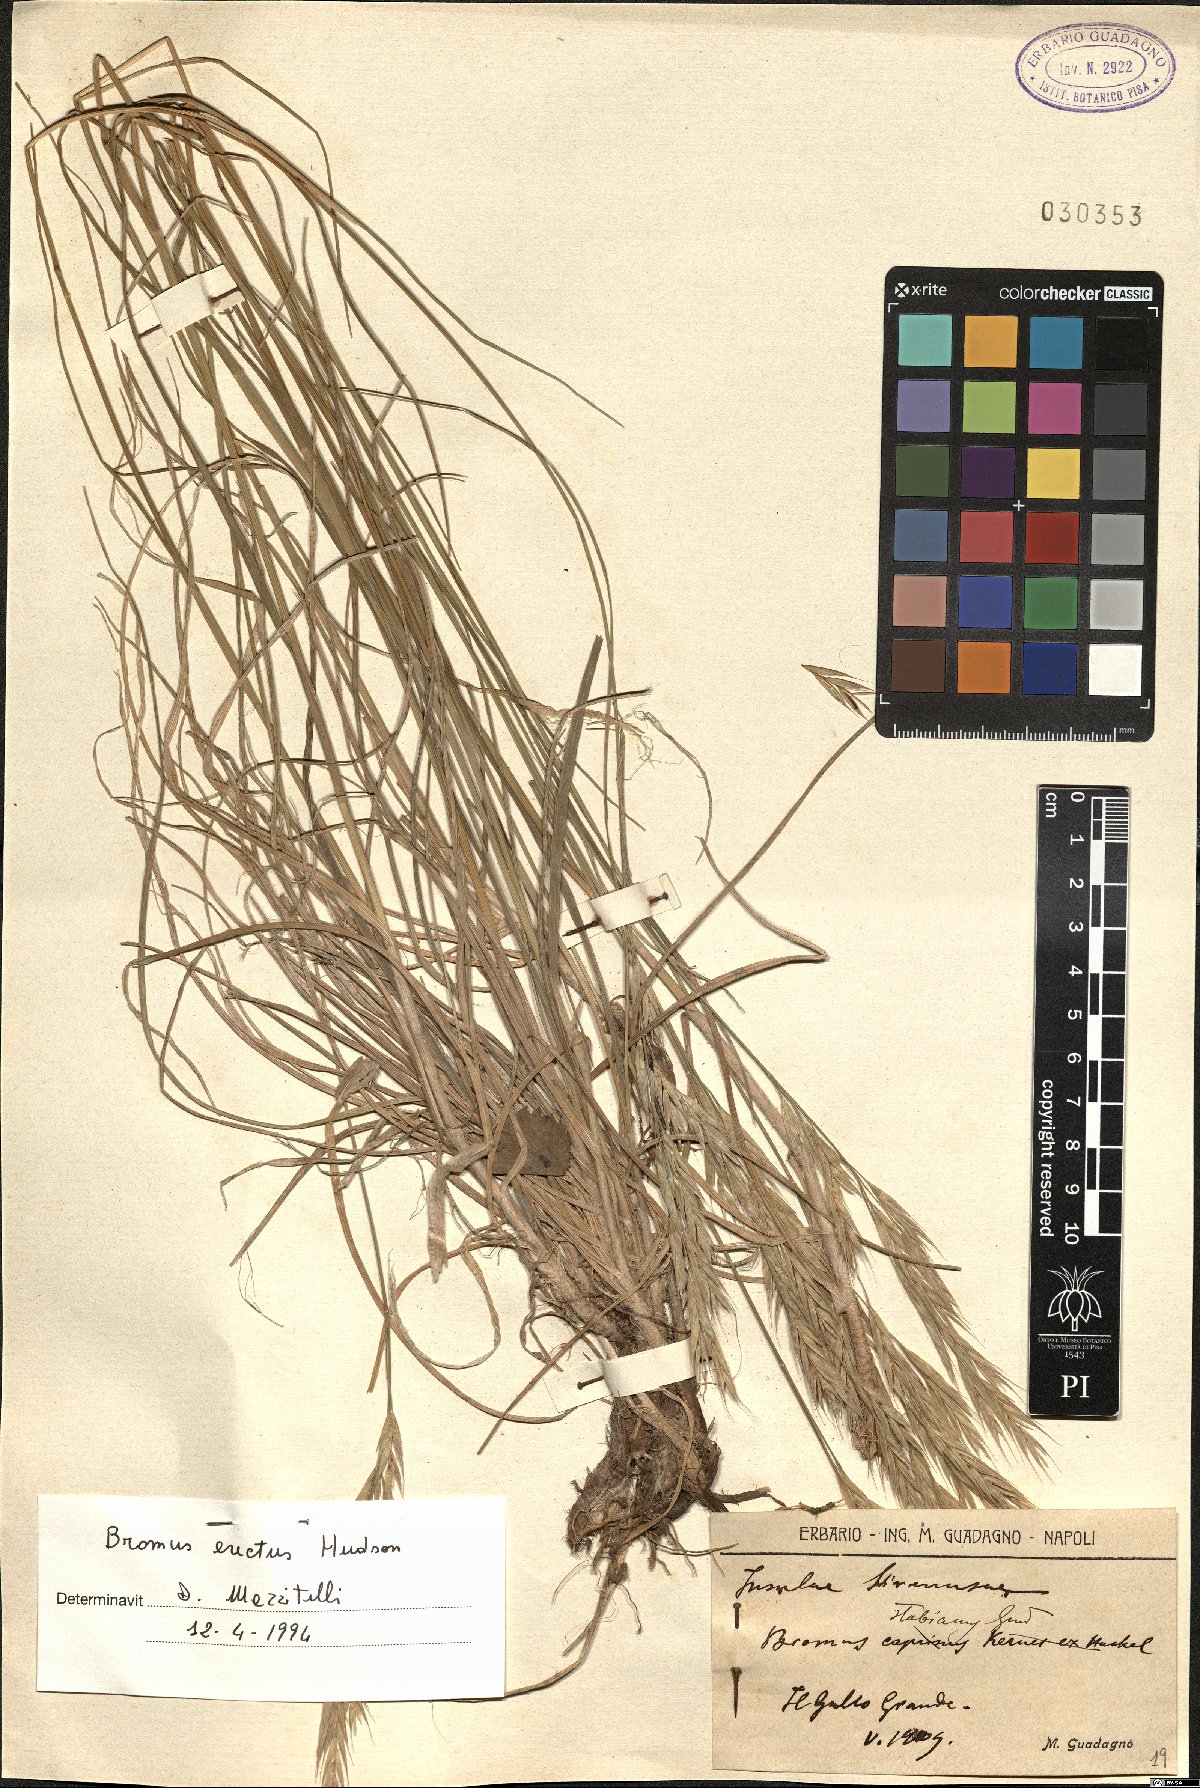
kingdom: Plantae
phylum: Tracheophyta
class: Liliopsida
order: Poales
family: Poaceae
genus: Bromus
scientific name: Bromus erectus
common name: Erect brome
